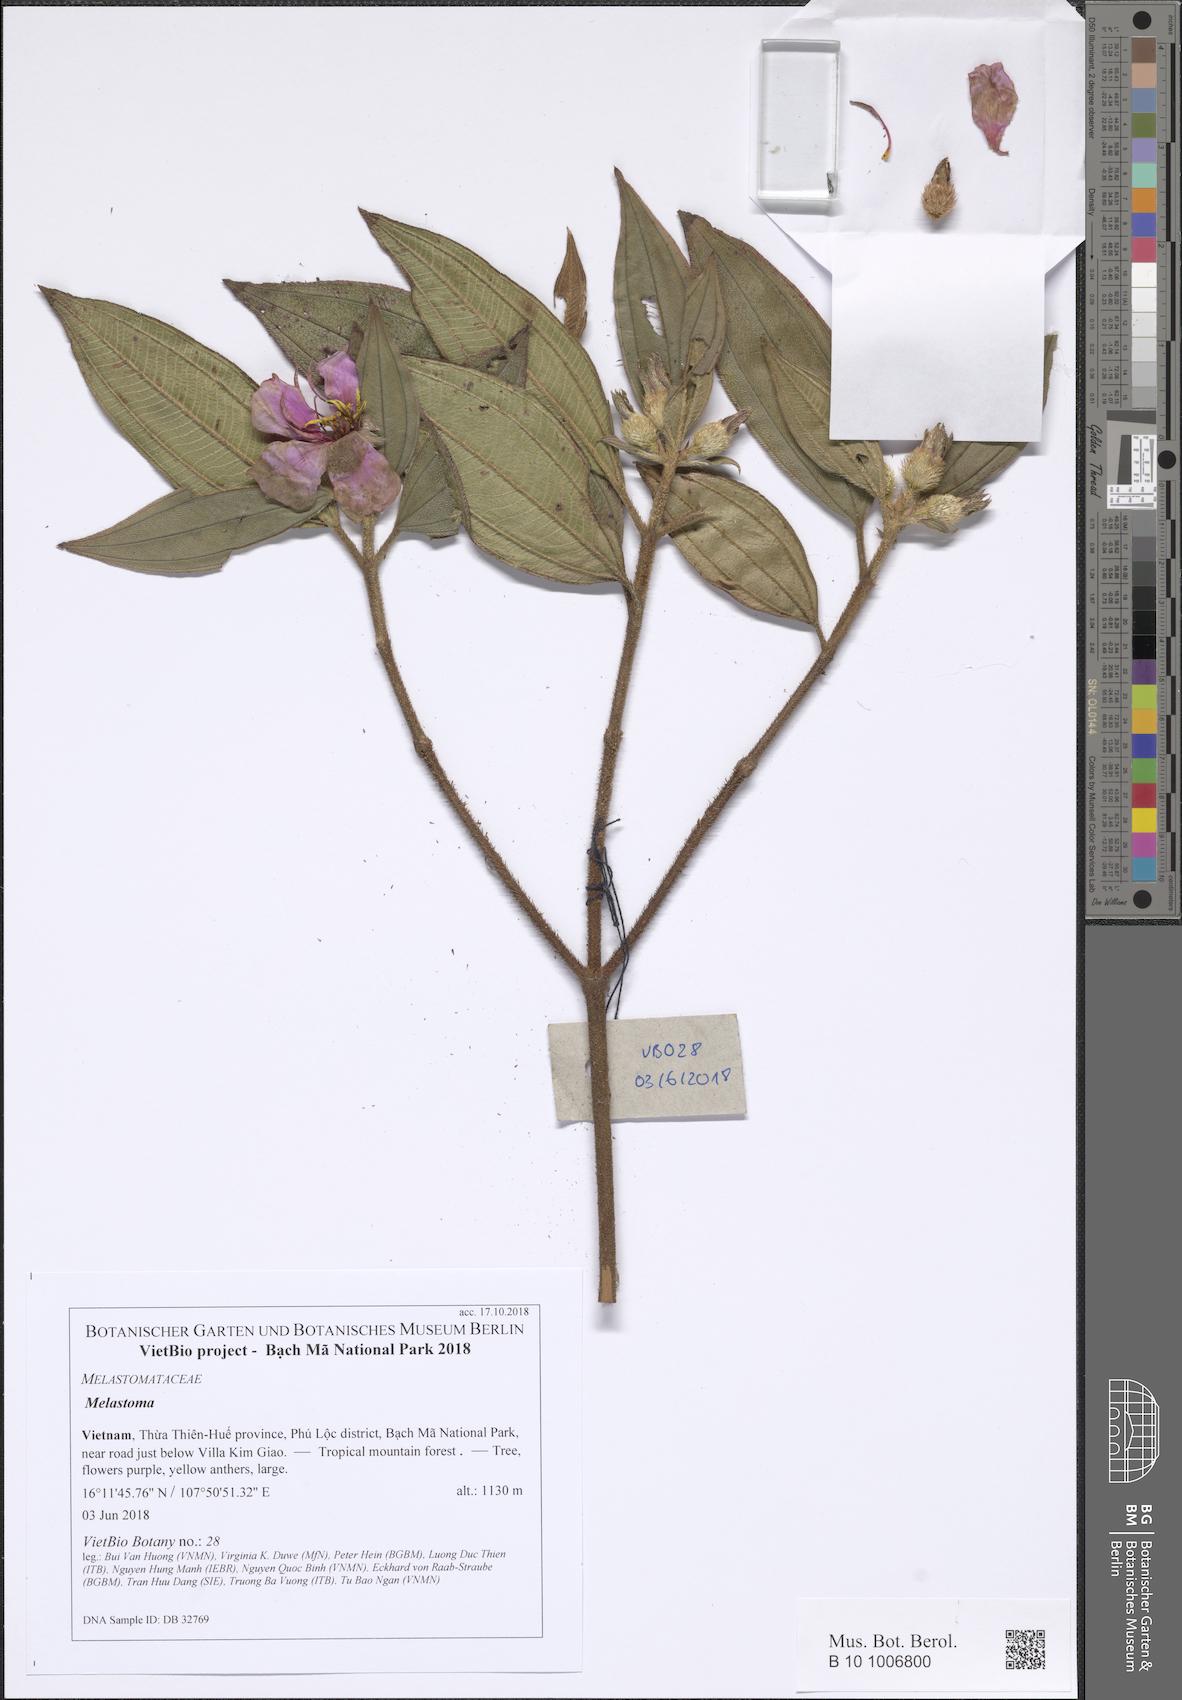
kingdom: Plantae
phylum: Tracheophyta
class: Magnoliopsida
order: Myrtales
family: Melastomataceae
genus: Melastoma
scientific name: Melastoma
